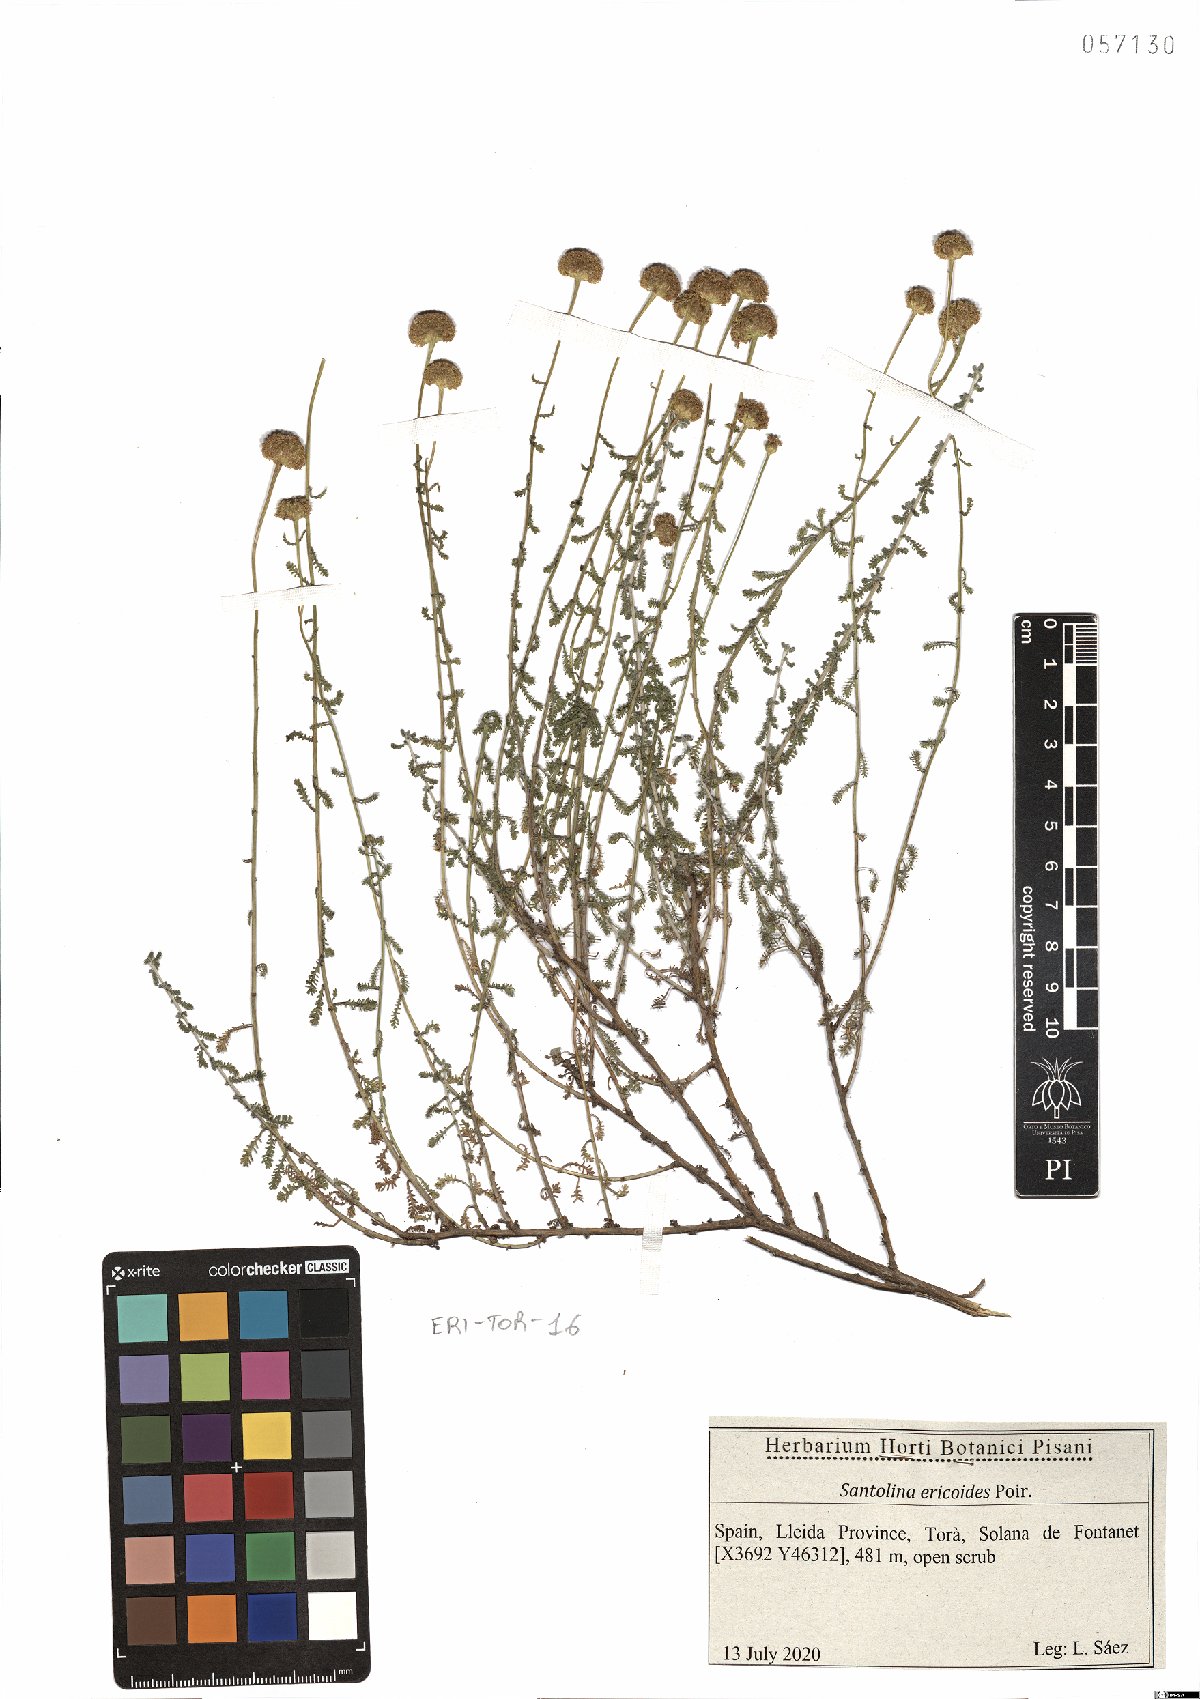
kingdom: Plantae
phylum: Tracheophyta
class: Magnoliopsida
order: Asterales
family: Asteraceae
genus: Santolina
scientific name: Santolina ericoides
